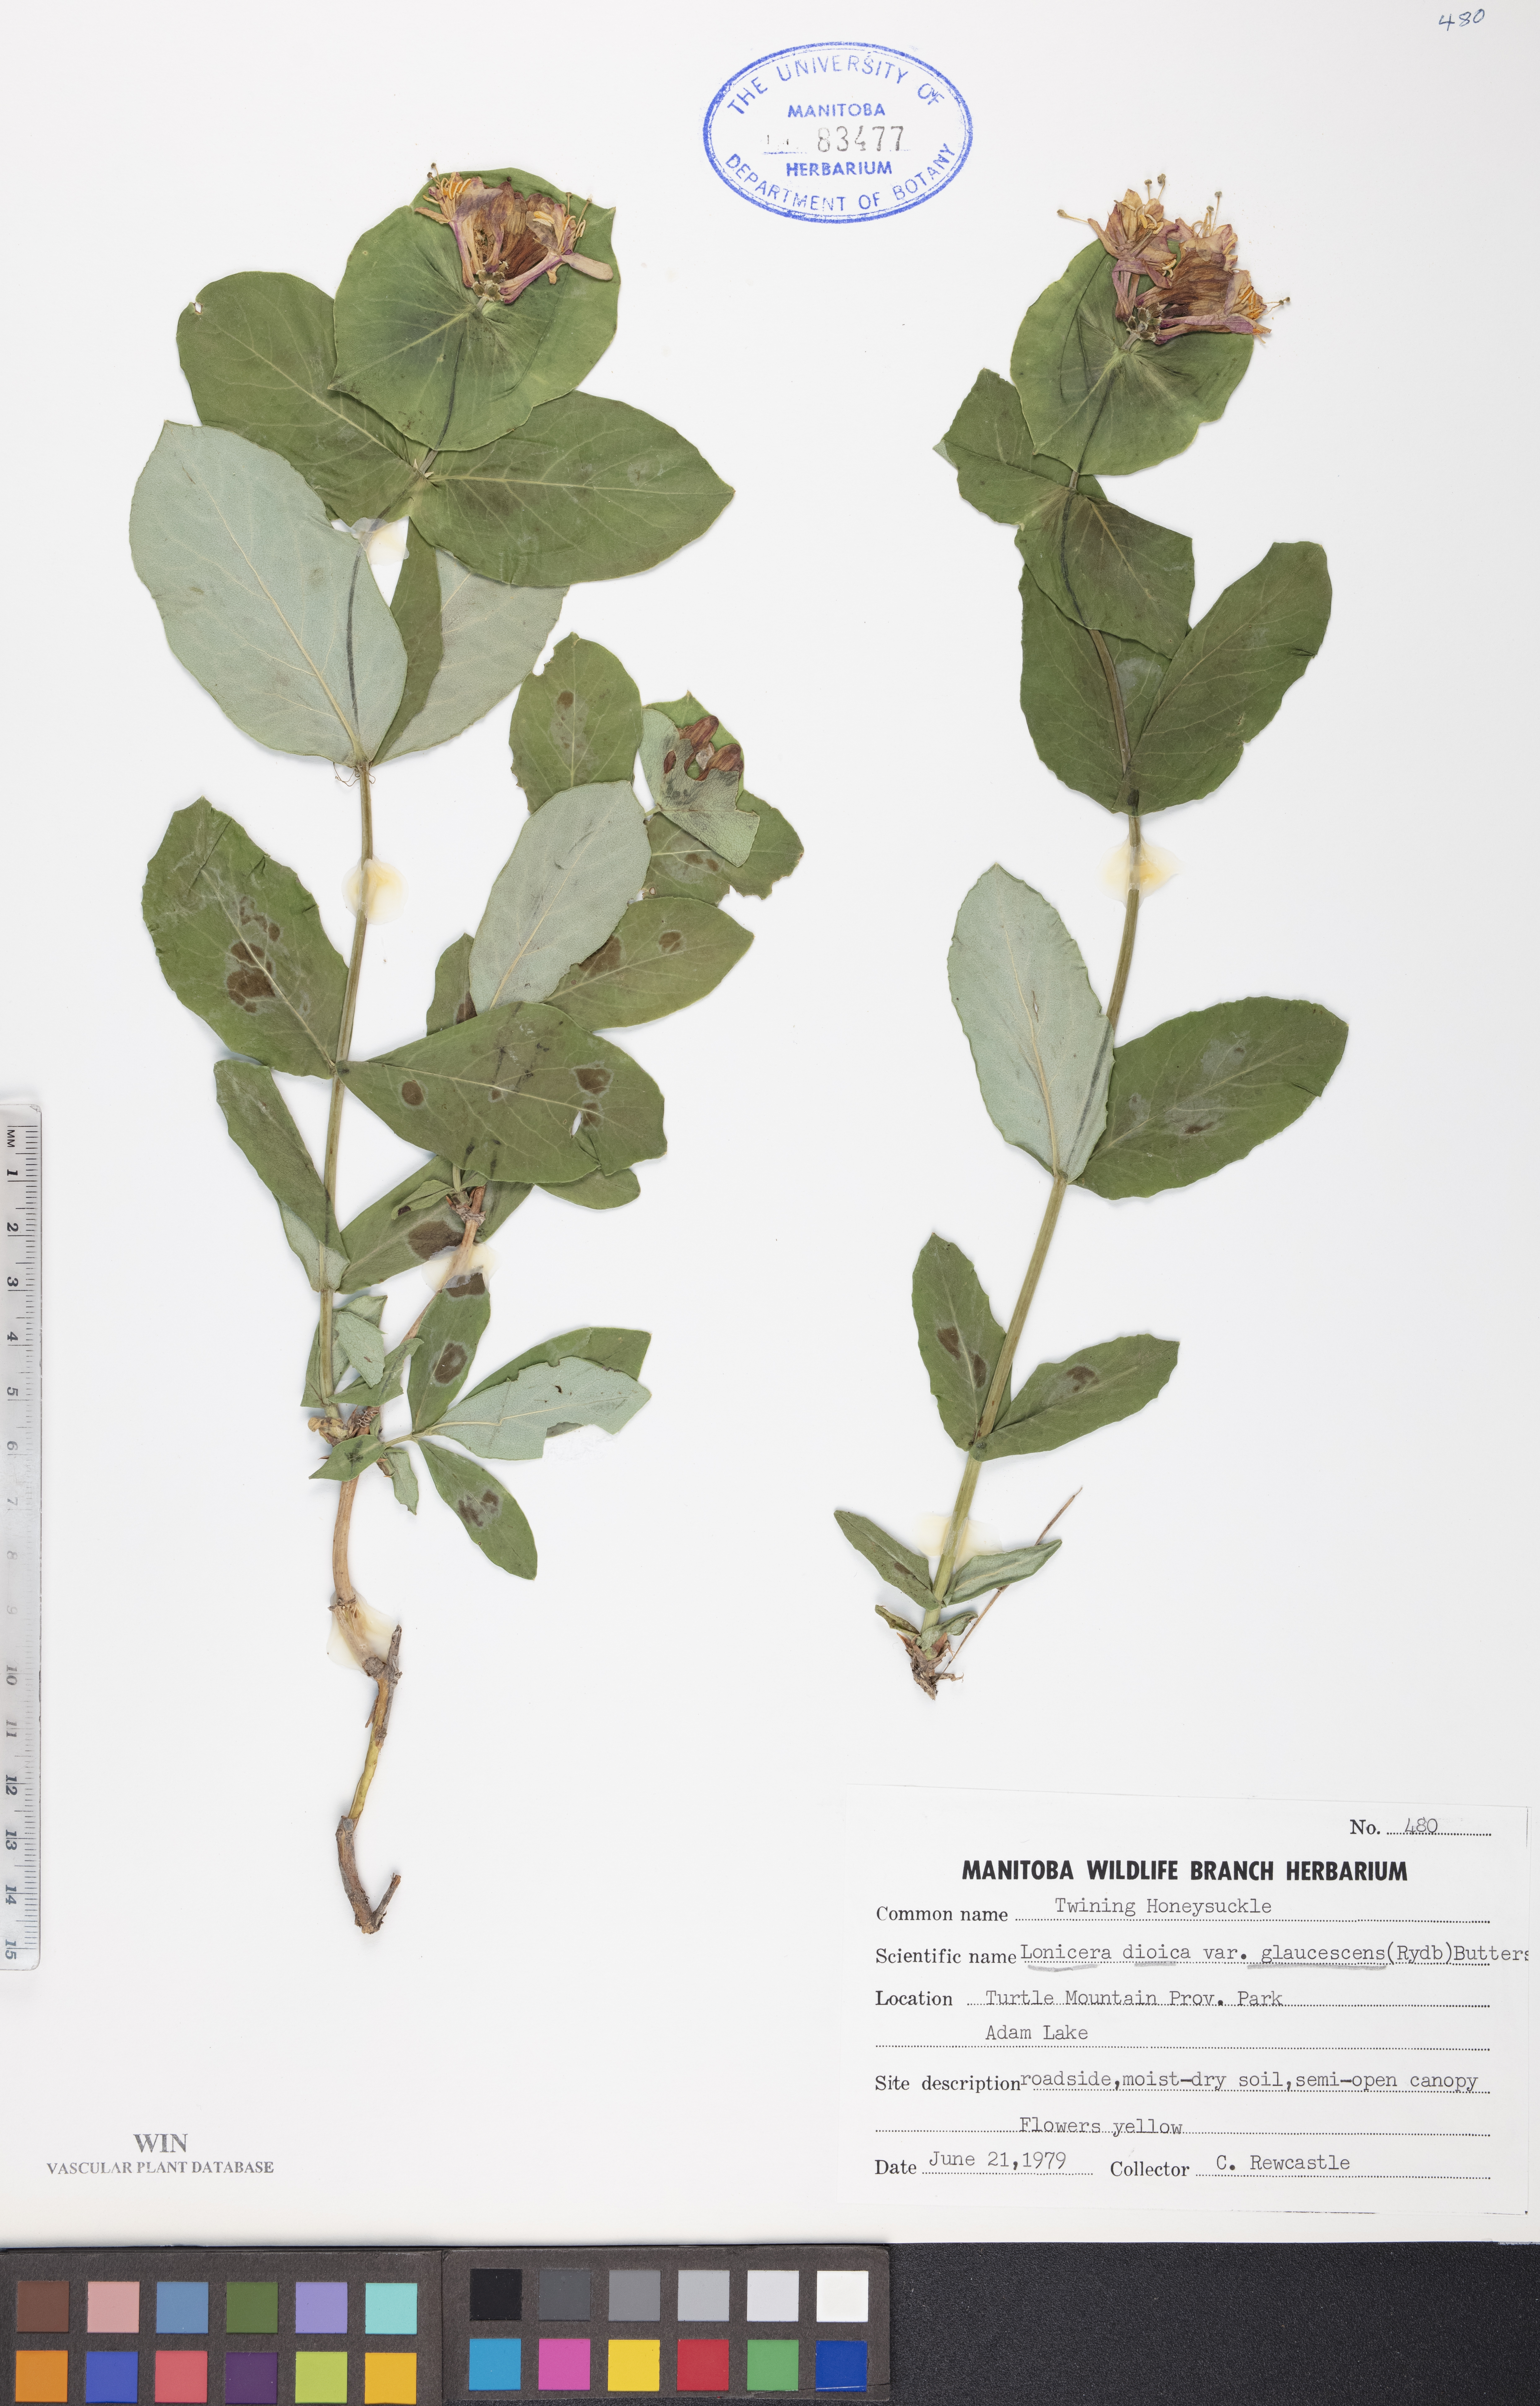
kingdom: Plantae
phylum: Tracheophyta
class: Magnoliopsida
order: Dipsacales
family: Caprifoliaceae
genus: Lonicera
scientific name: Lonicera dioica
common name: Limber honeysuckle
